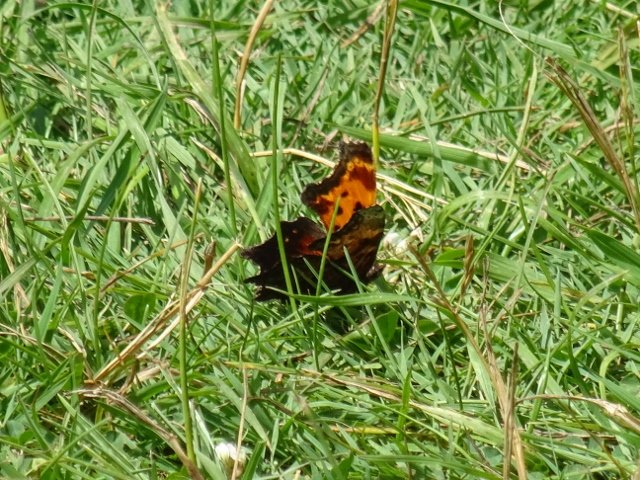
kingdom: Animalia
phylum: Arthropoda
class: Insecta
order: Lepidoptera
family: Nymphalidae
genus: Polygonia
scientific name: Polygonia
